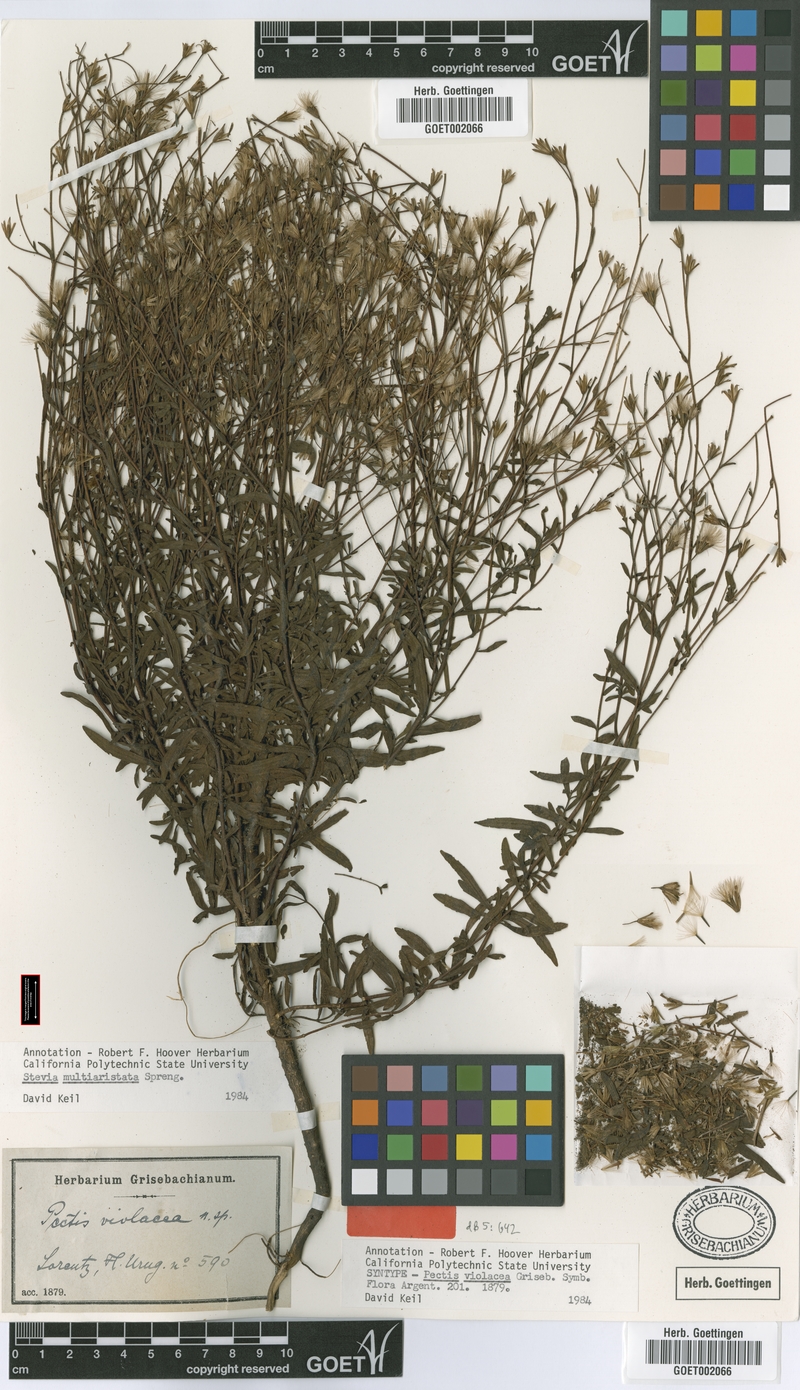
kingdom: Plantae
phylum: Tracheophyta
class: Magnoliopsida
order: Asterales
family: Asteraceae
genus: Stevia
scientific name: Stevia multiaristata
